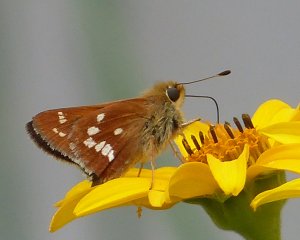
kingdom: Animalia
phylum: Arthropoda
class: Insecta
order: Lepidoptera
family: Hesperiidae
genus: Hesperia
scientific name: Hesperia leonardus
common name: Leonard's Skipper
